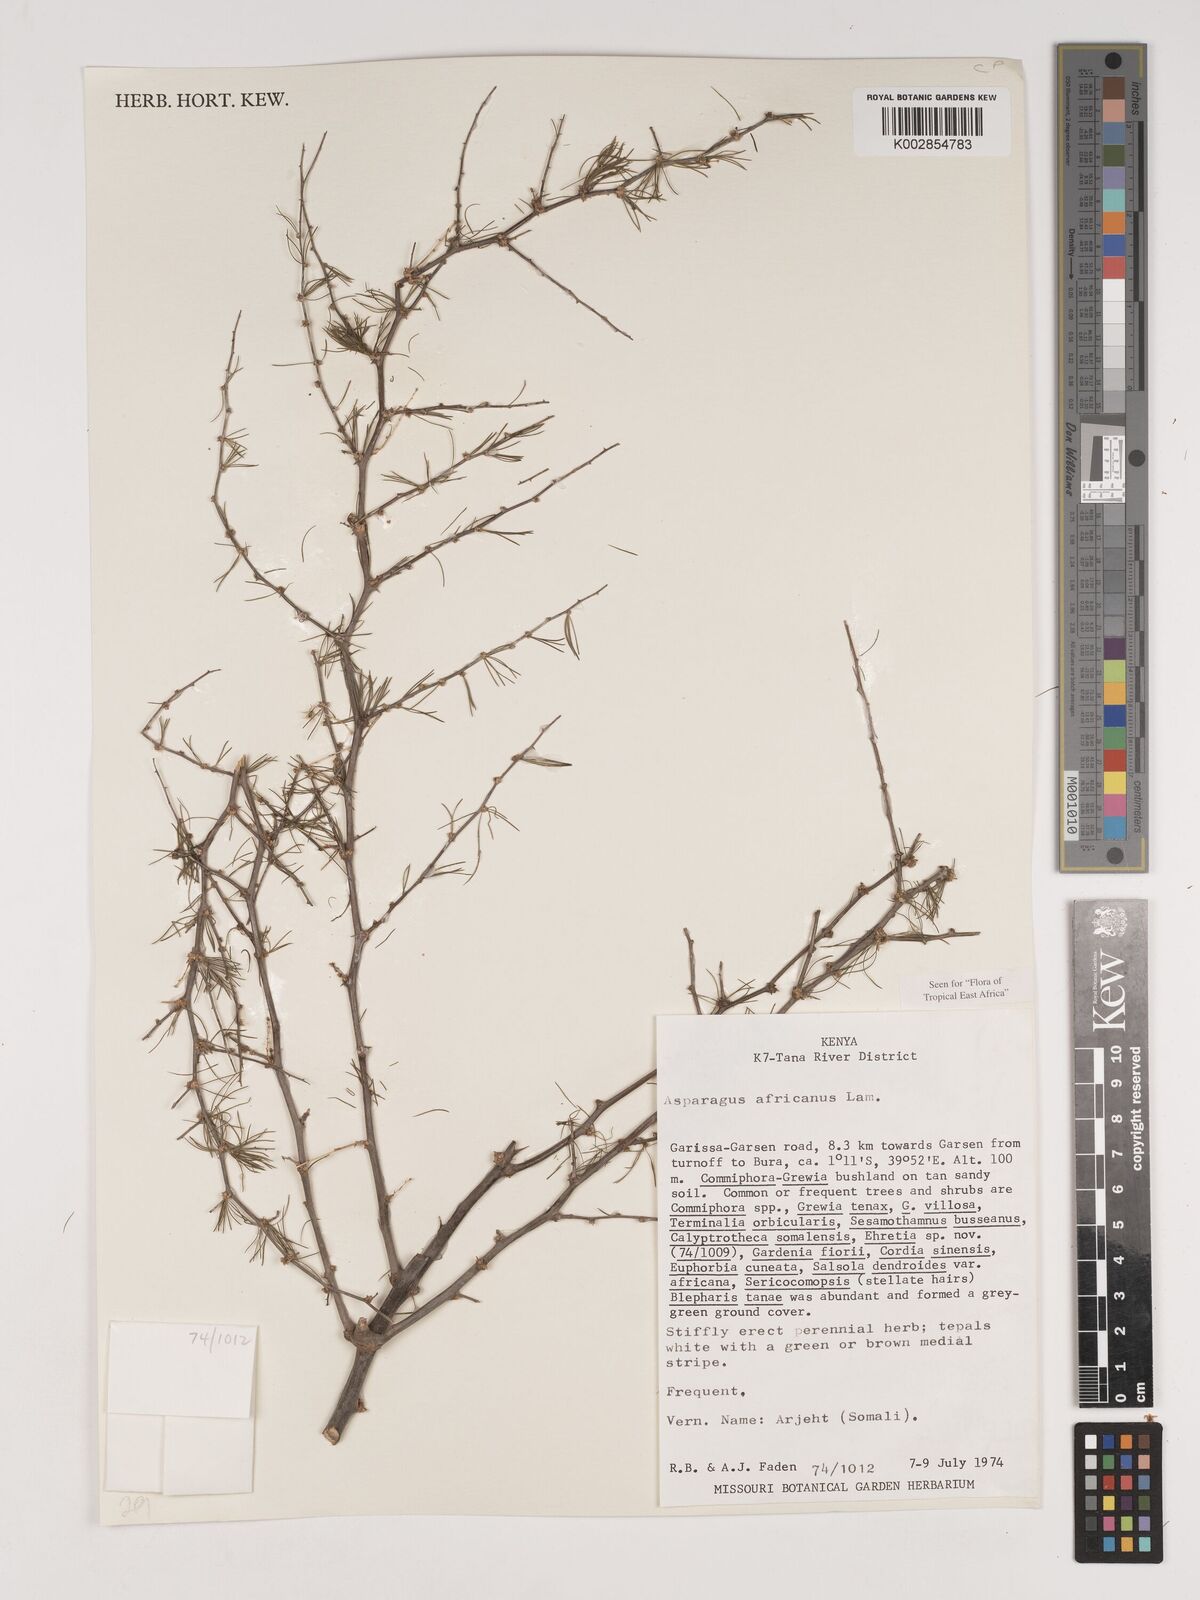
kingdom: Plantae
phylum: Tracheophyta
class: Liliopsida
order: Asparagales
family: Asparagaceae
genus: Asparagus
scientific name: Asparagus africanus
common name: Asparagus-fern
